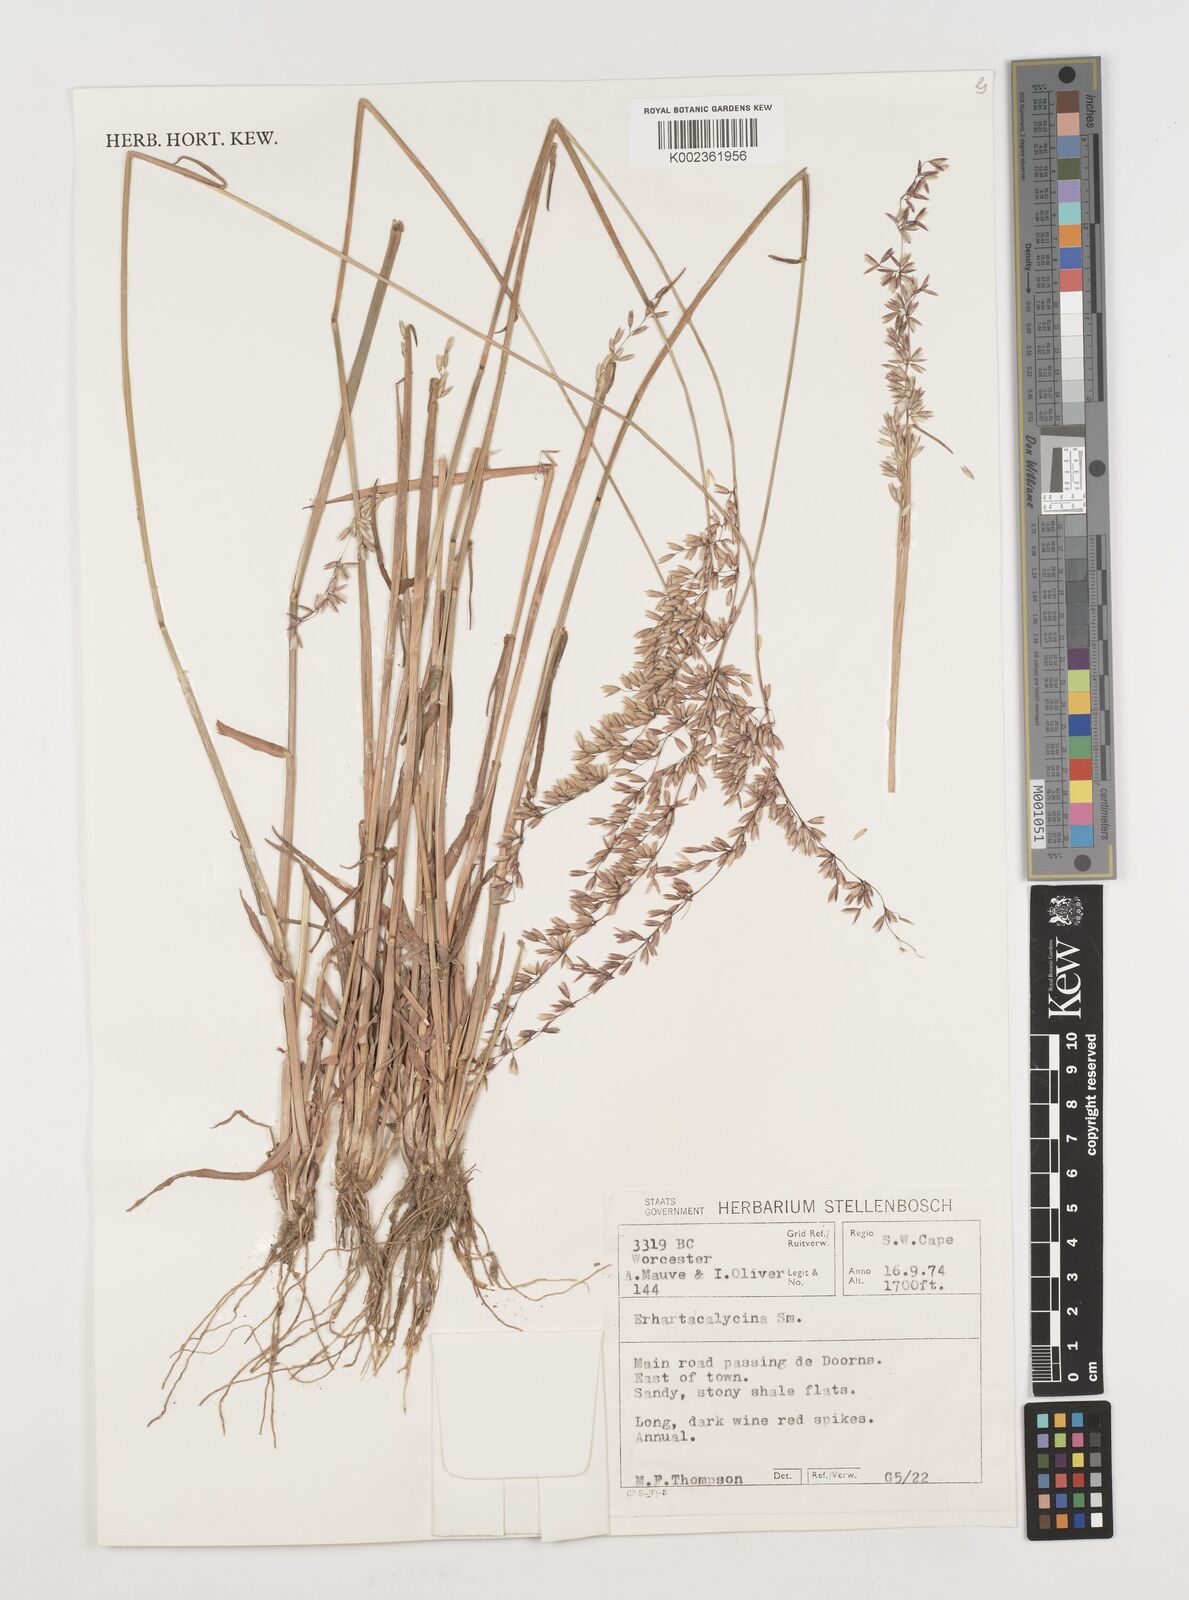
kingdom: Plantae
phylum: Tracheophyta
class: Liliopsida
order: Poales
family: Poaceae
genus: Ehrharta
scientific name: Ehrharta calycina
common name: Perennial veldtgrass
